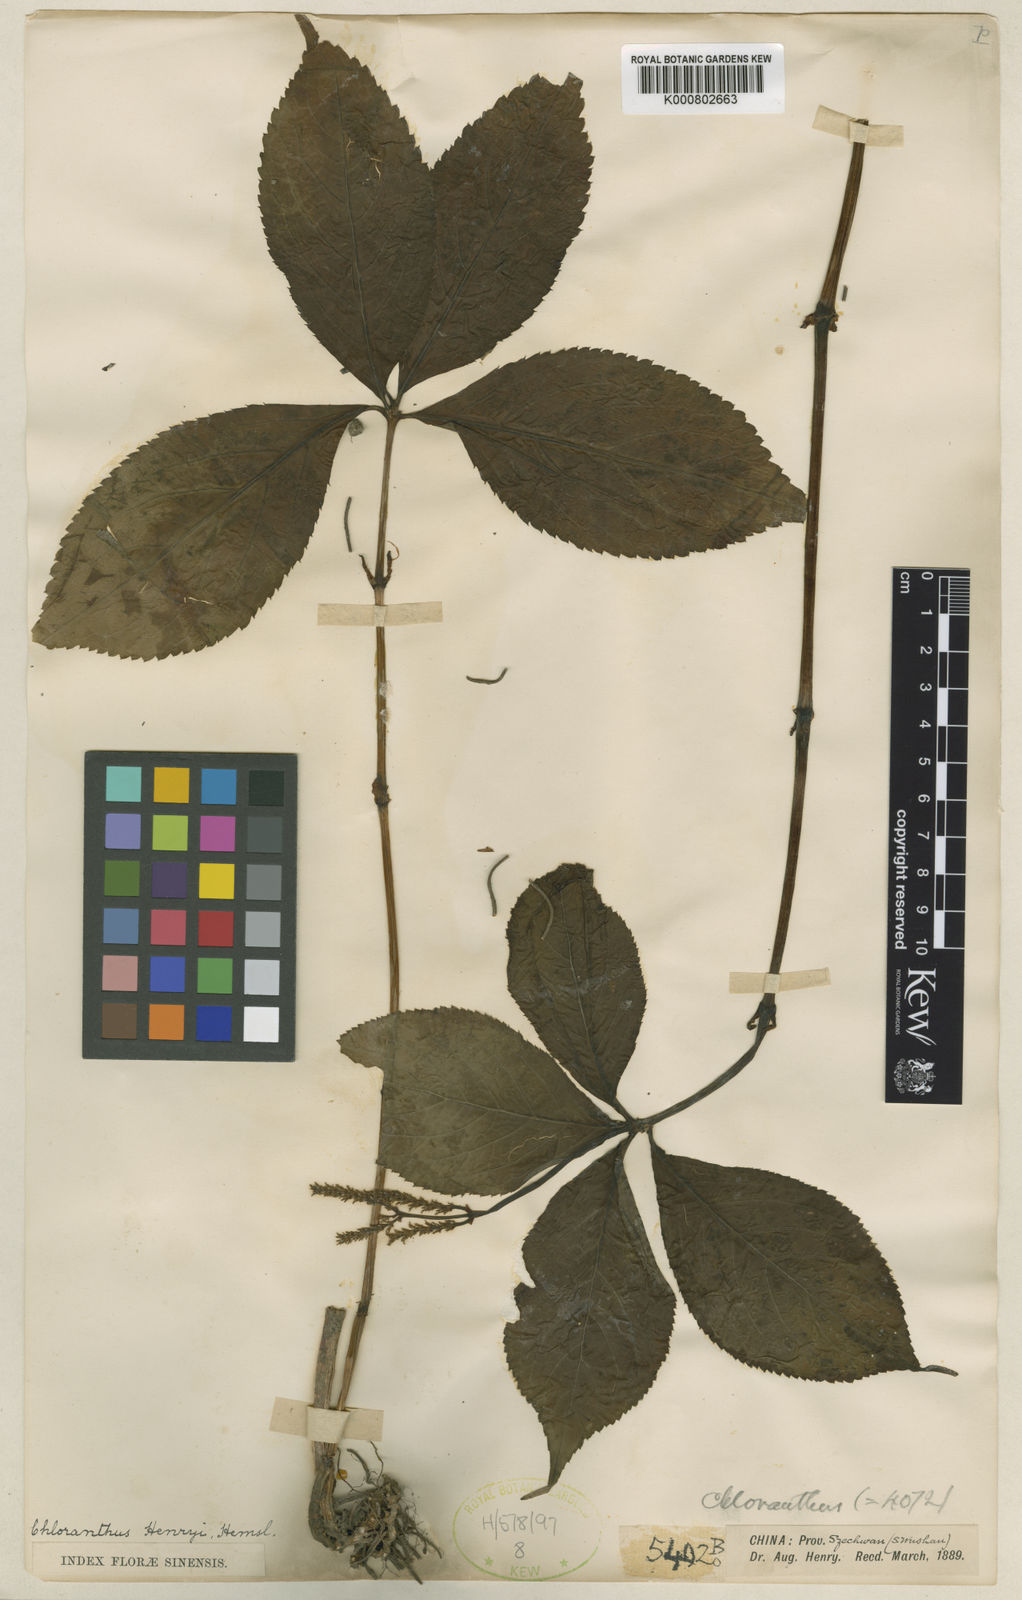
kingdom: Plantae
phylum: Tracheophyta
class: Magnoliopsida
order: Chloranthales
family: Chloranthaceae
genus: Chloranthus
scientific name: Chloranthus holostegius
